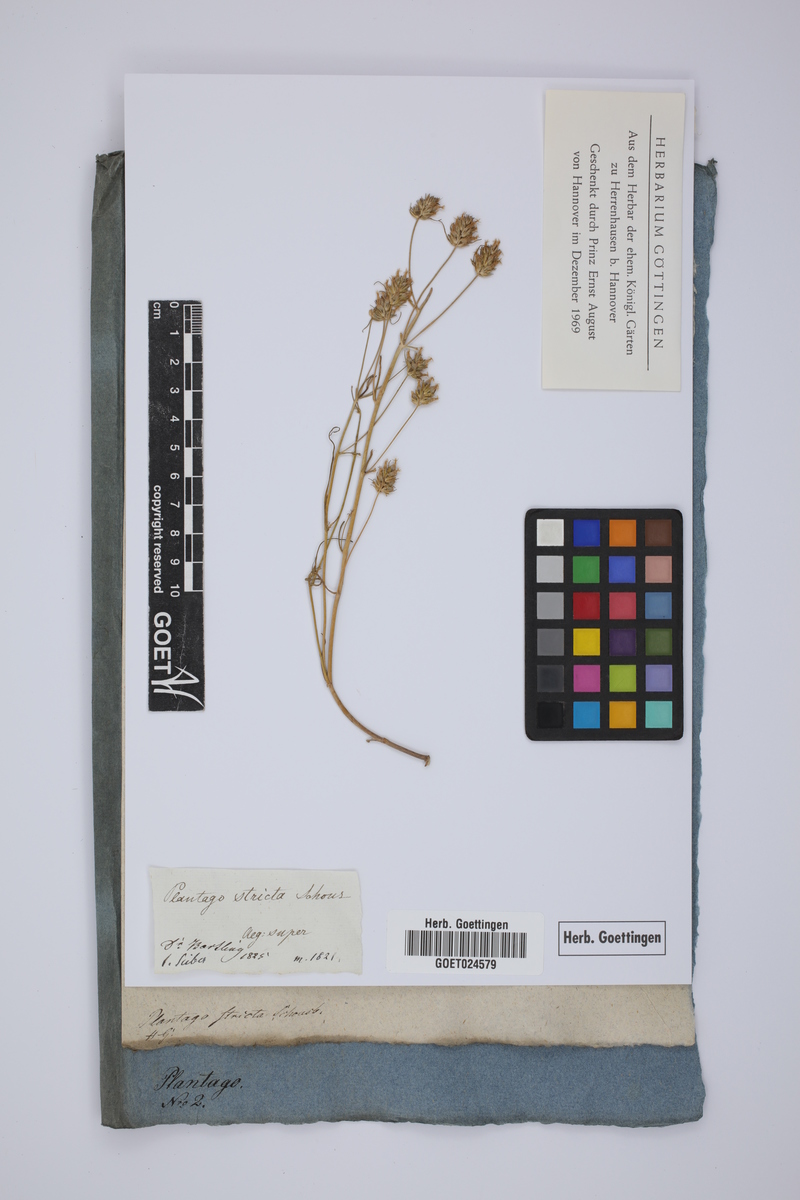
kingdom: Plantae
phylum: Tracheophyta
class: Magnoliopsida
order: Lamiales
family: Plantaginaceae
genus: Plantago
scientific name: Plantago afra
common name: Glandular plantain
